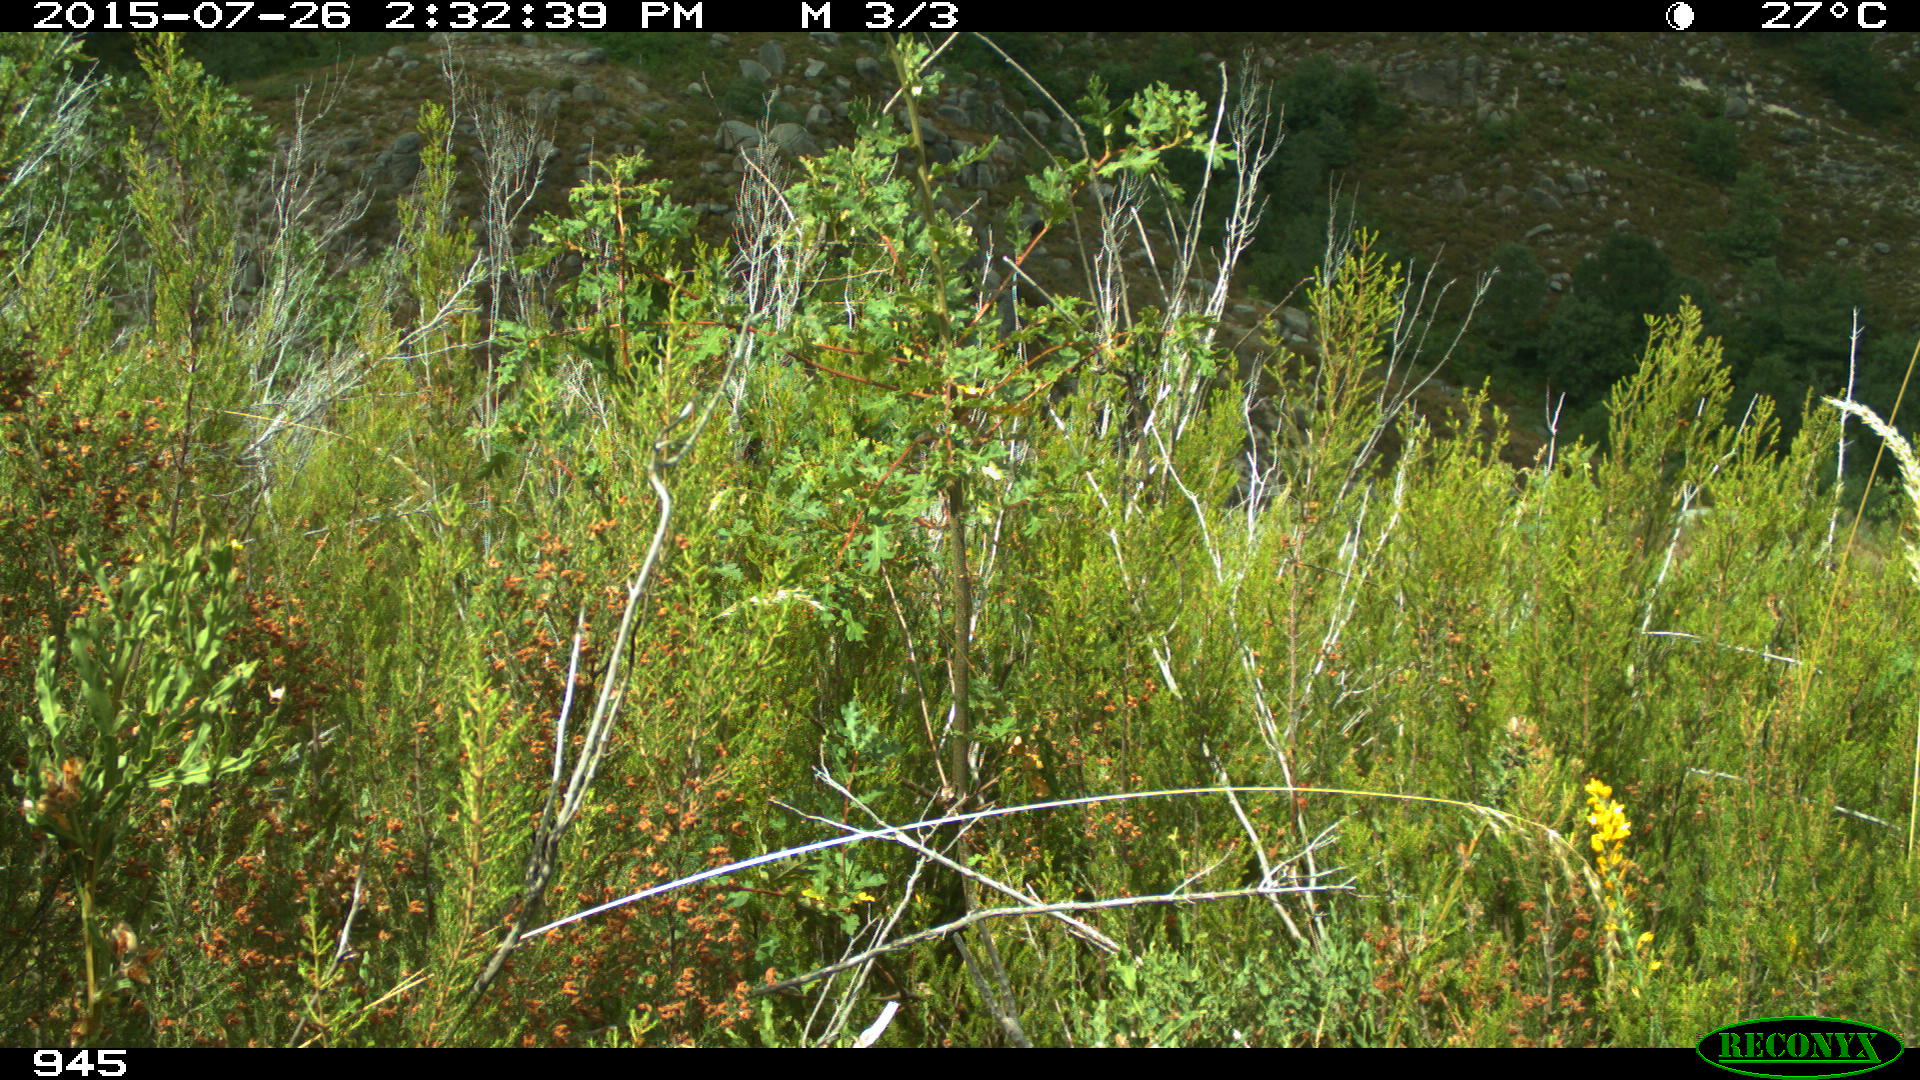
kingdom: Animalia
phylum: Chordata
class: Mammalia
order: Artiodactyla
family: Cervidae
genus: Capreolus
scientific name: Capreolus capreolus
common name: Western roe deer
